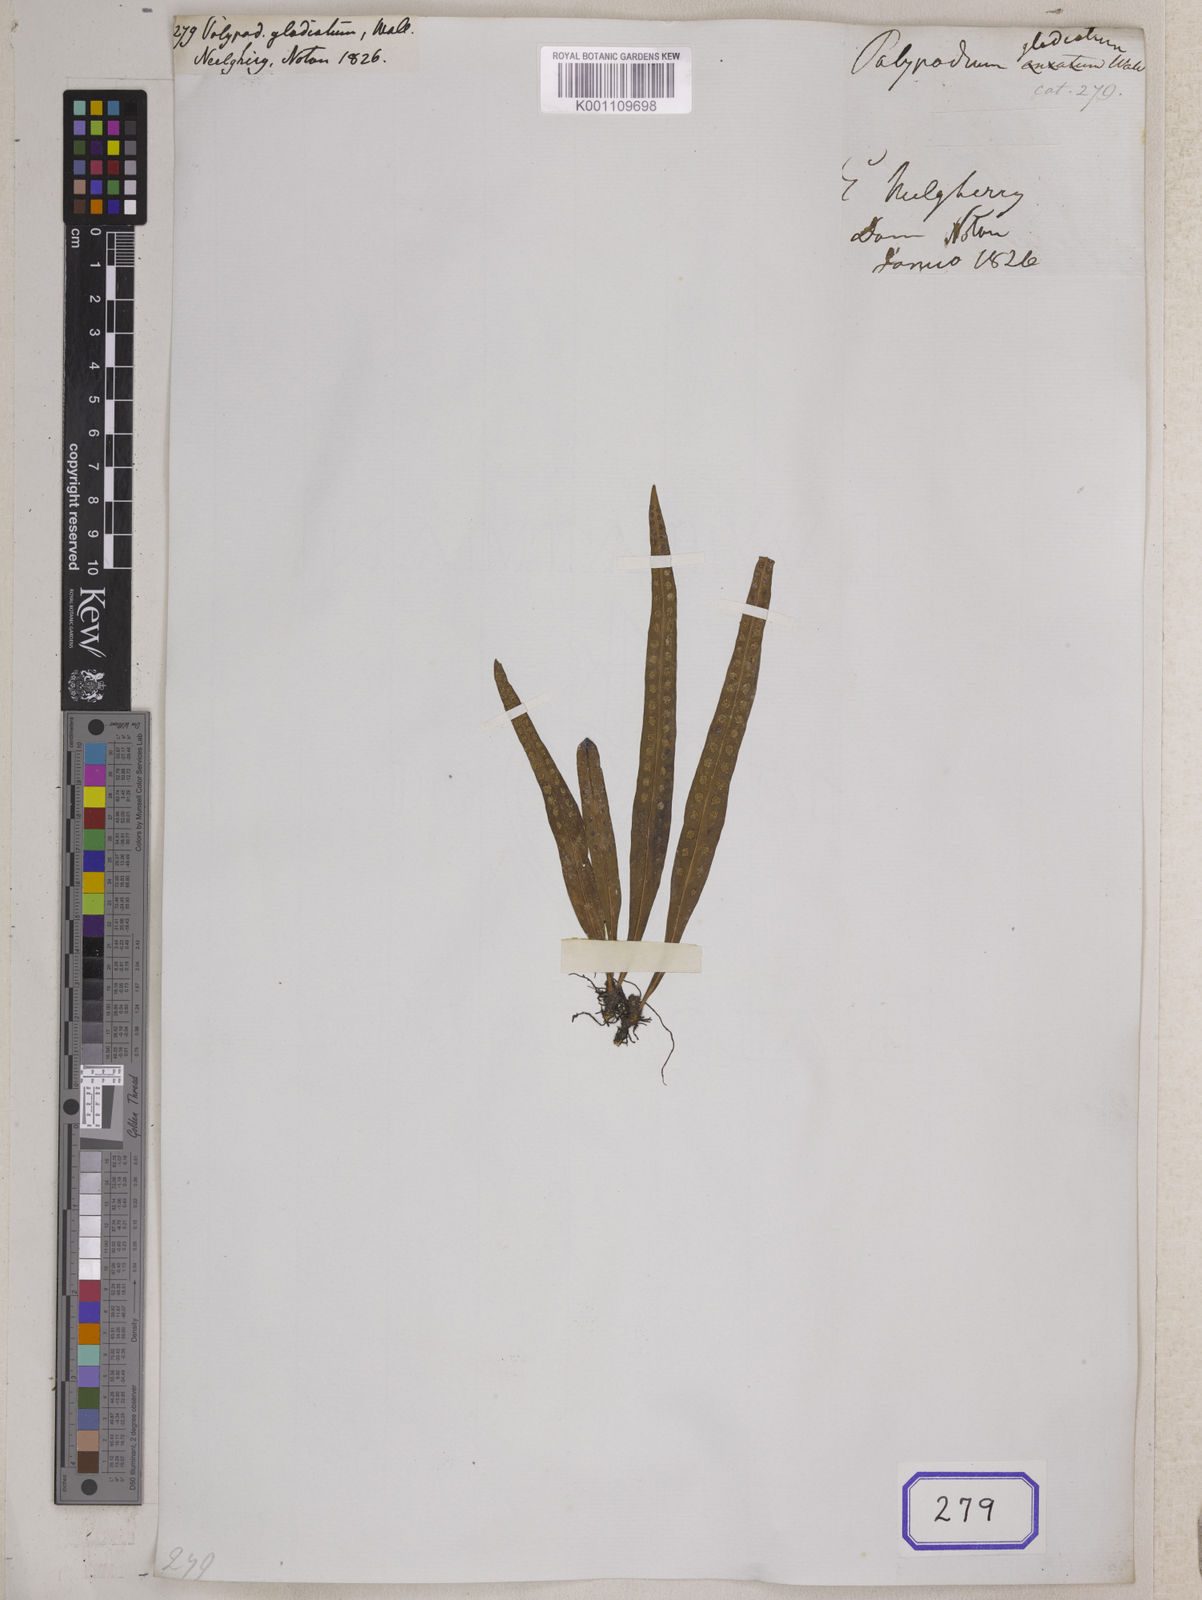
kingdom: Plantae
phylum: Tracheophyta
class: Polypodiopsida
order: Polypodiales
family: Polypodiaceae
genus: Lepisorus
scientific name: Lepisorus thunbergianus
